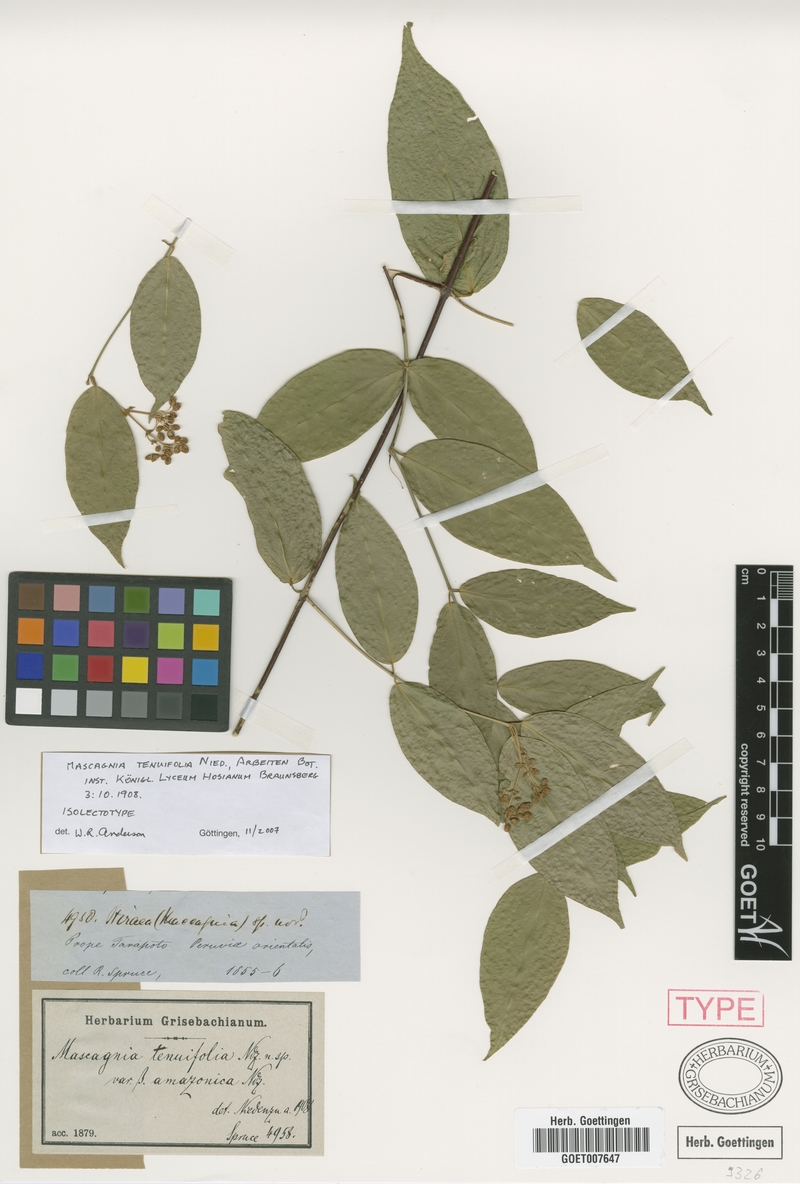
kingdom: Plantae
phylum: Tracheophyta
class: Magnoliopsida
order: Malpighiales
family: Malpighiaceae
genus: Mascagnia
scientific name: Mascagnia tenuifolia
